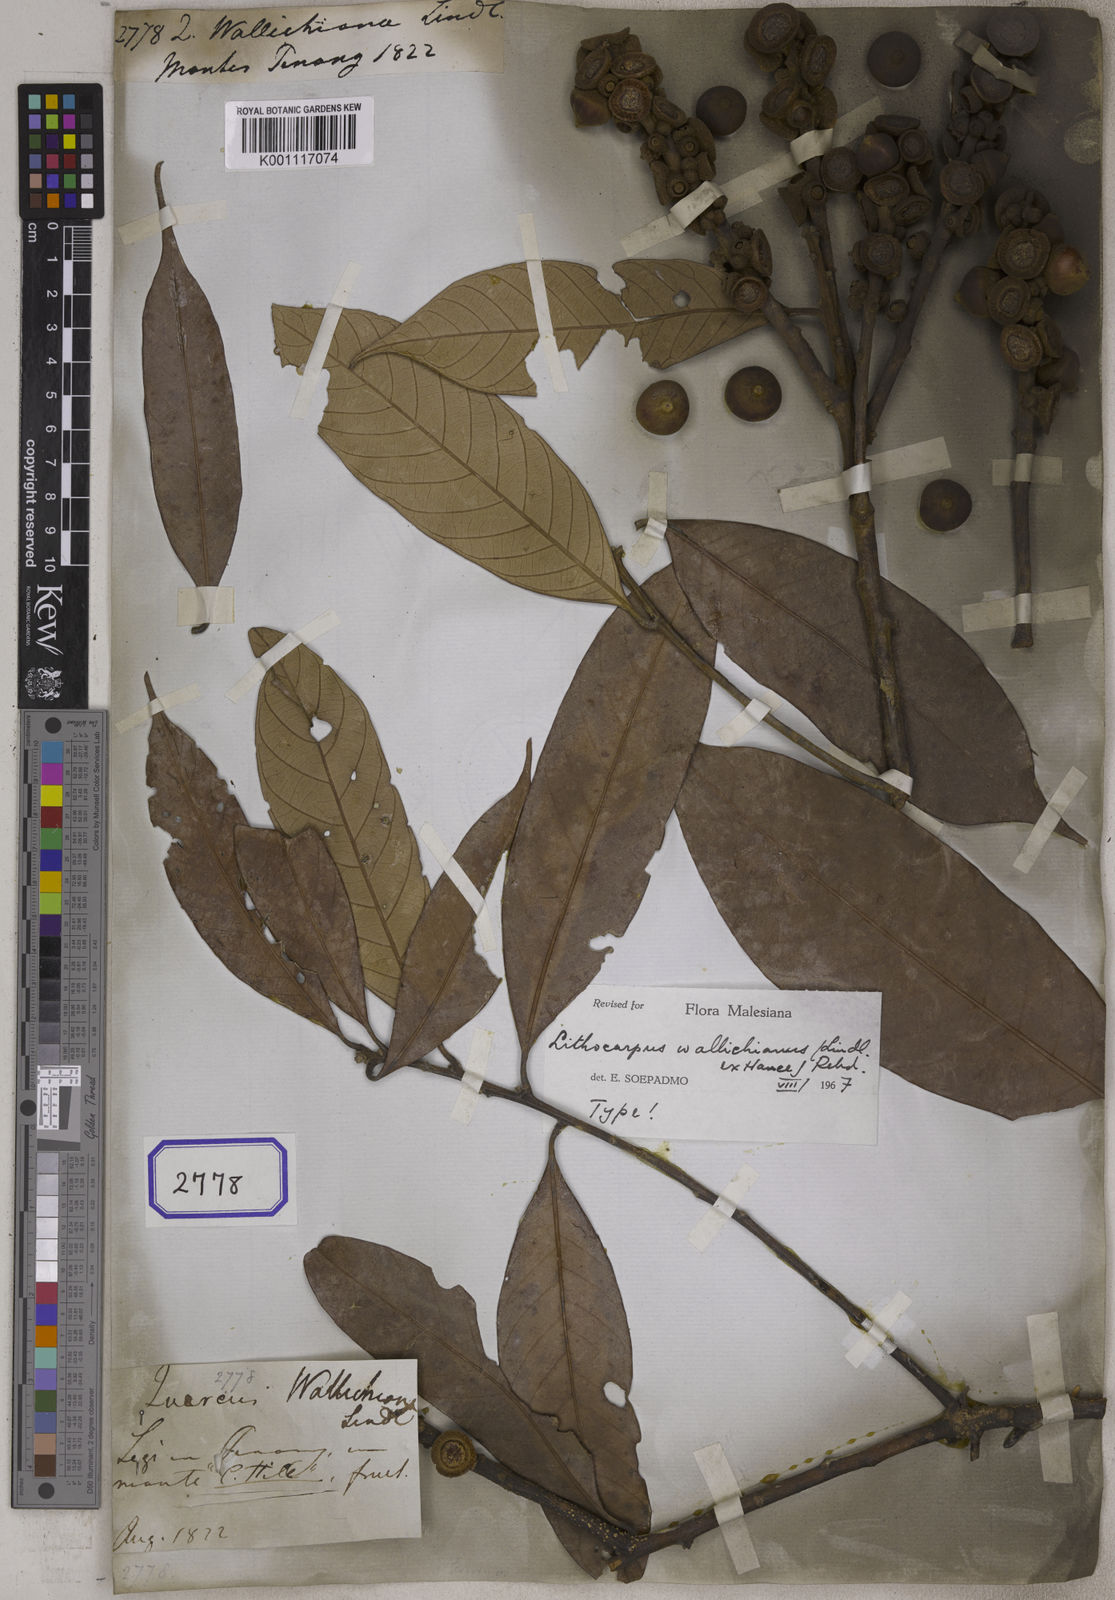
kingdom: Plantae
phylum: Tracheophyta
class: Magnoliopsida
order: Fagales
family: Fagaceae
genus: Quercus
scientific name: Quercus
